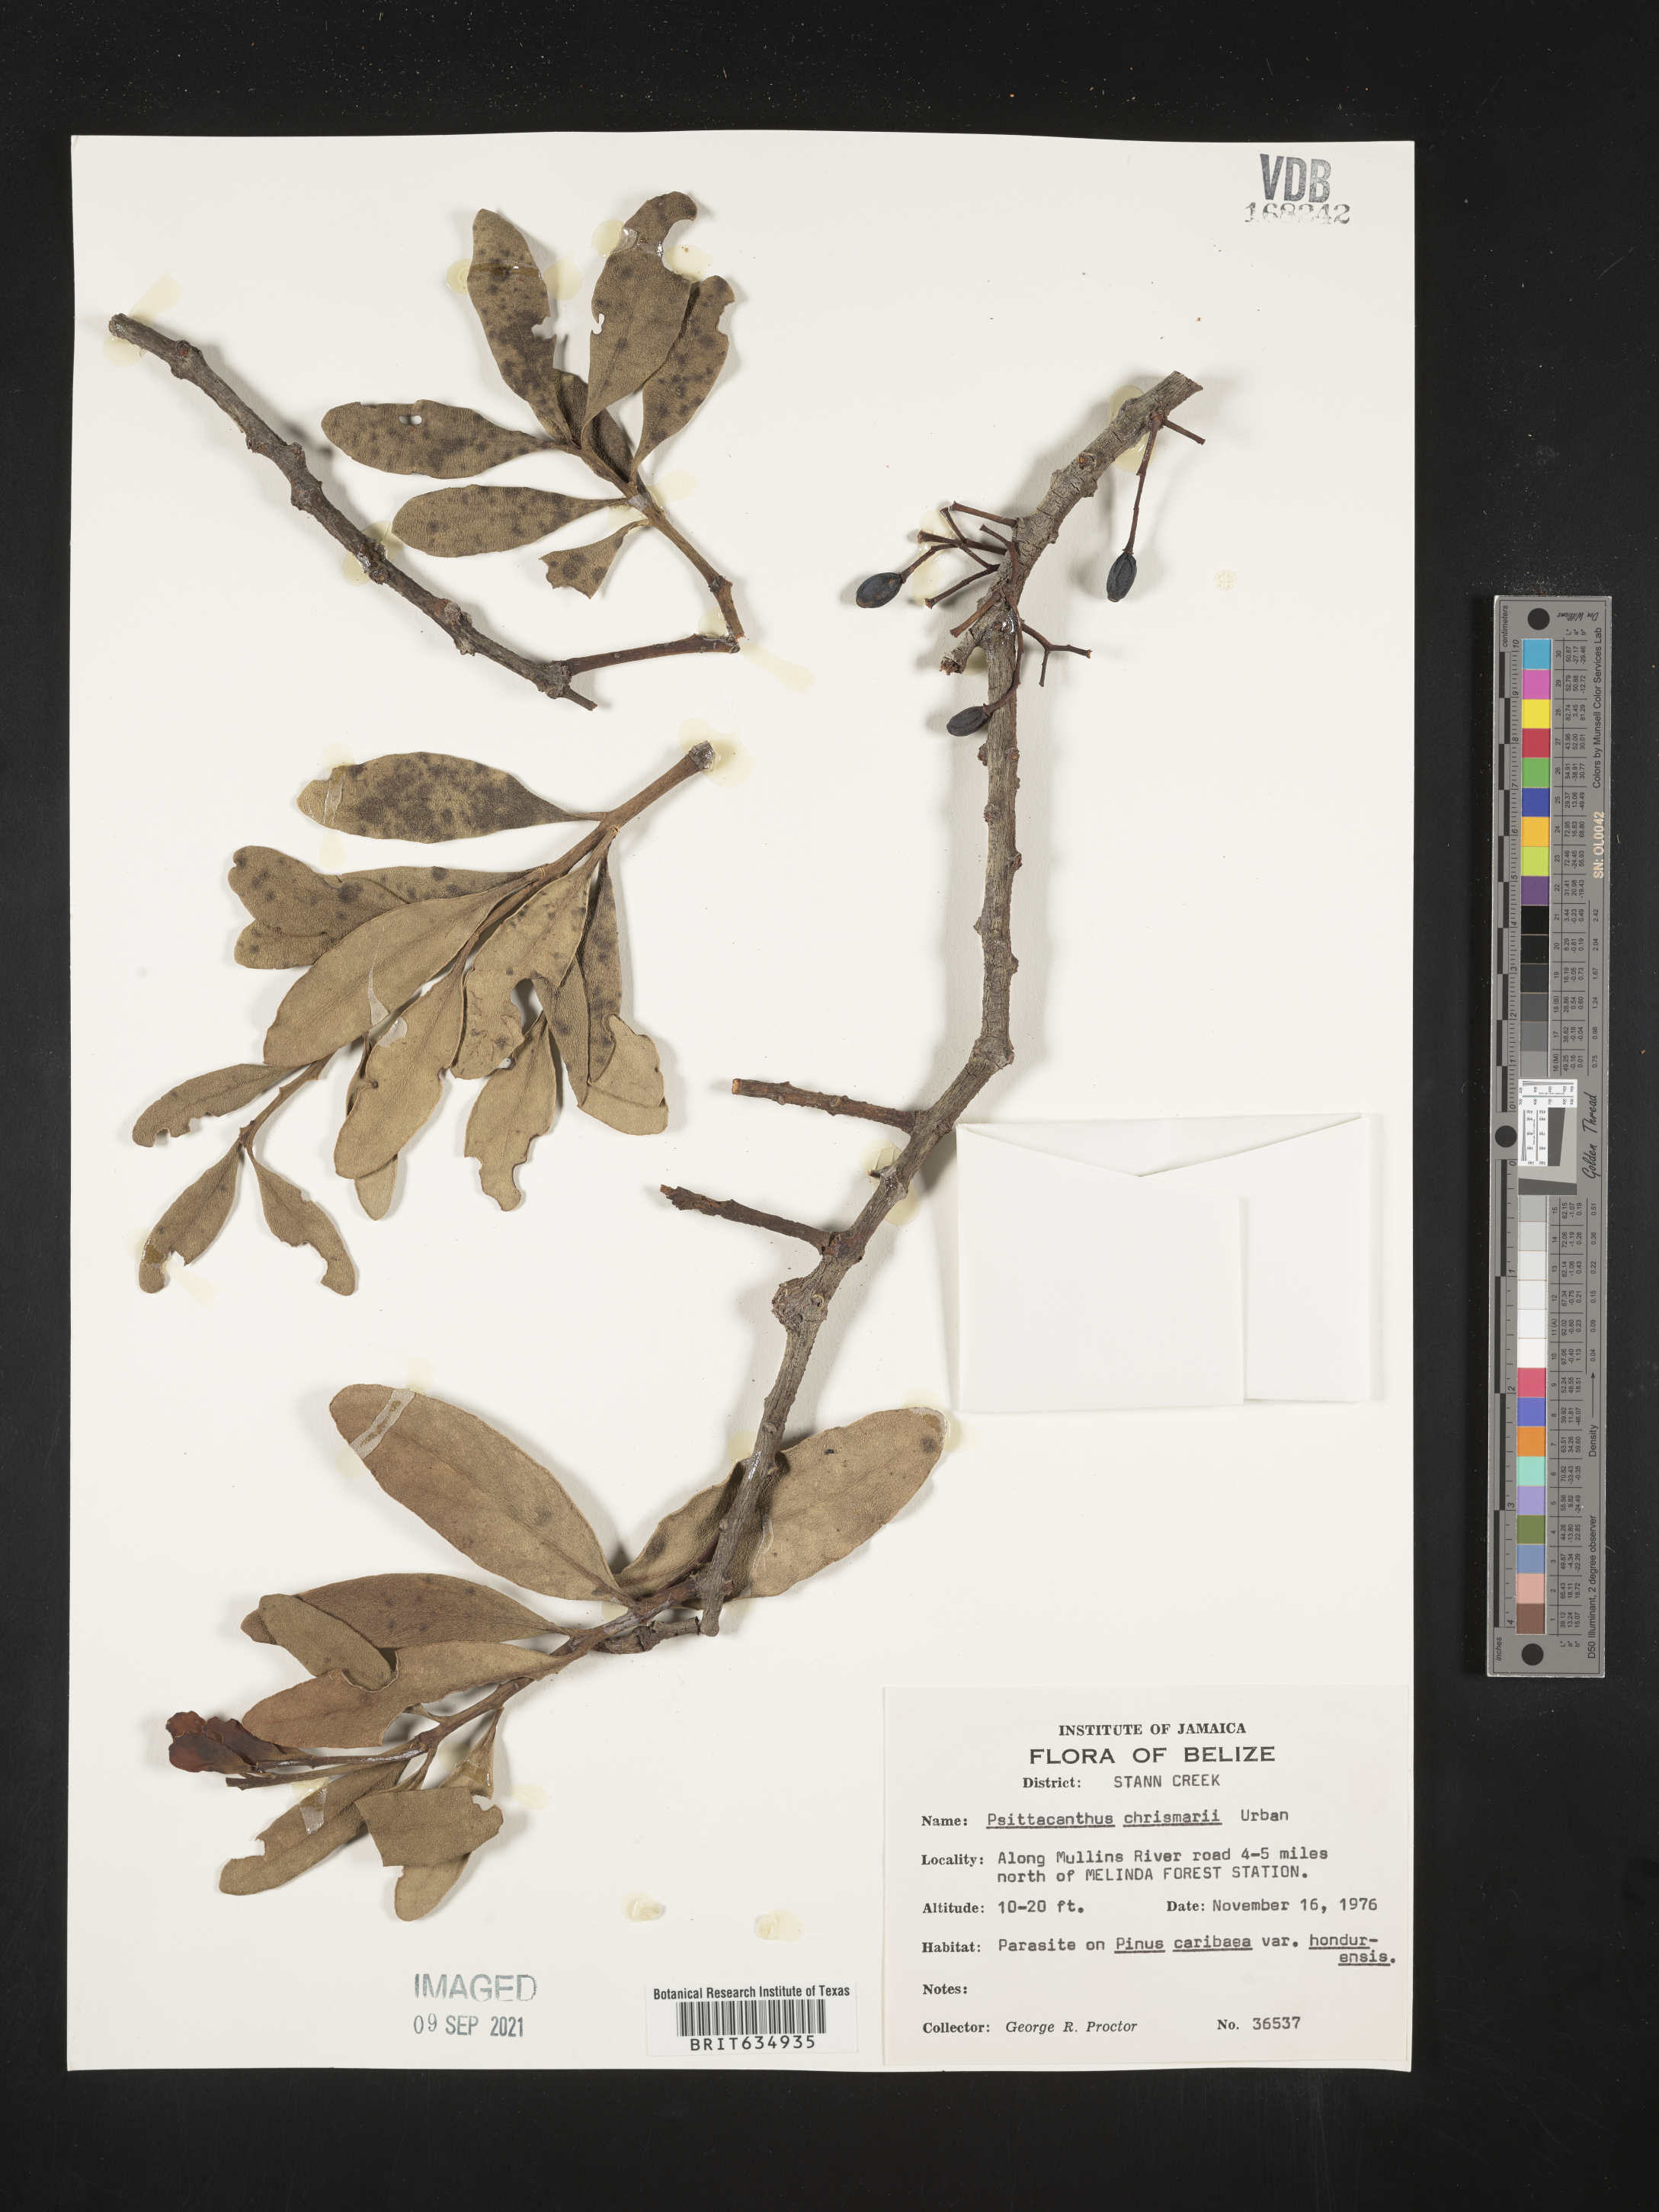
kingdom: Plantae
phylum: Tracheophyta
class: Magnoliopsida
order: Santalales
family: Loranthaceae
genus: Psittacanthus
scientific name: Psittacanthus
